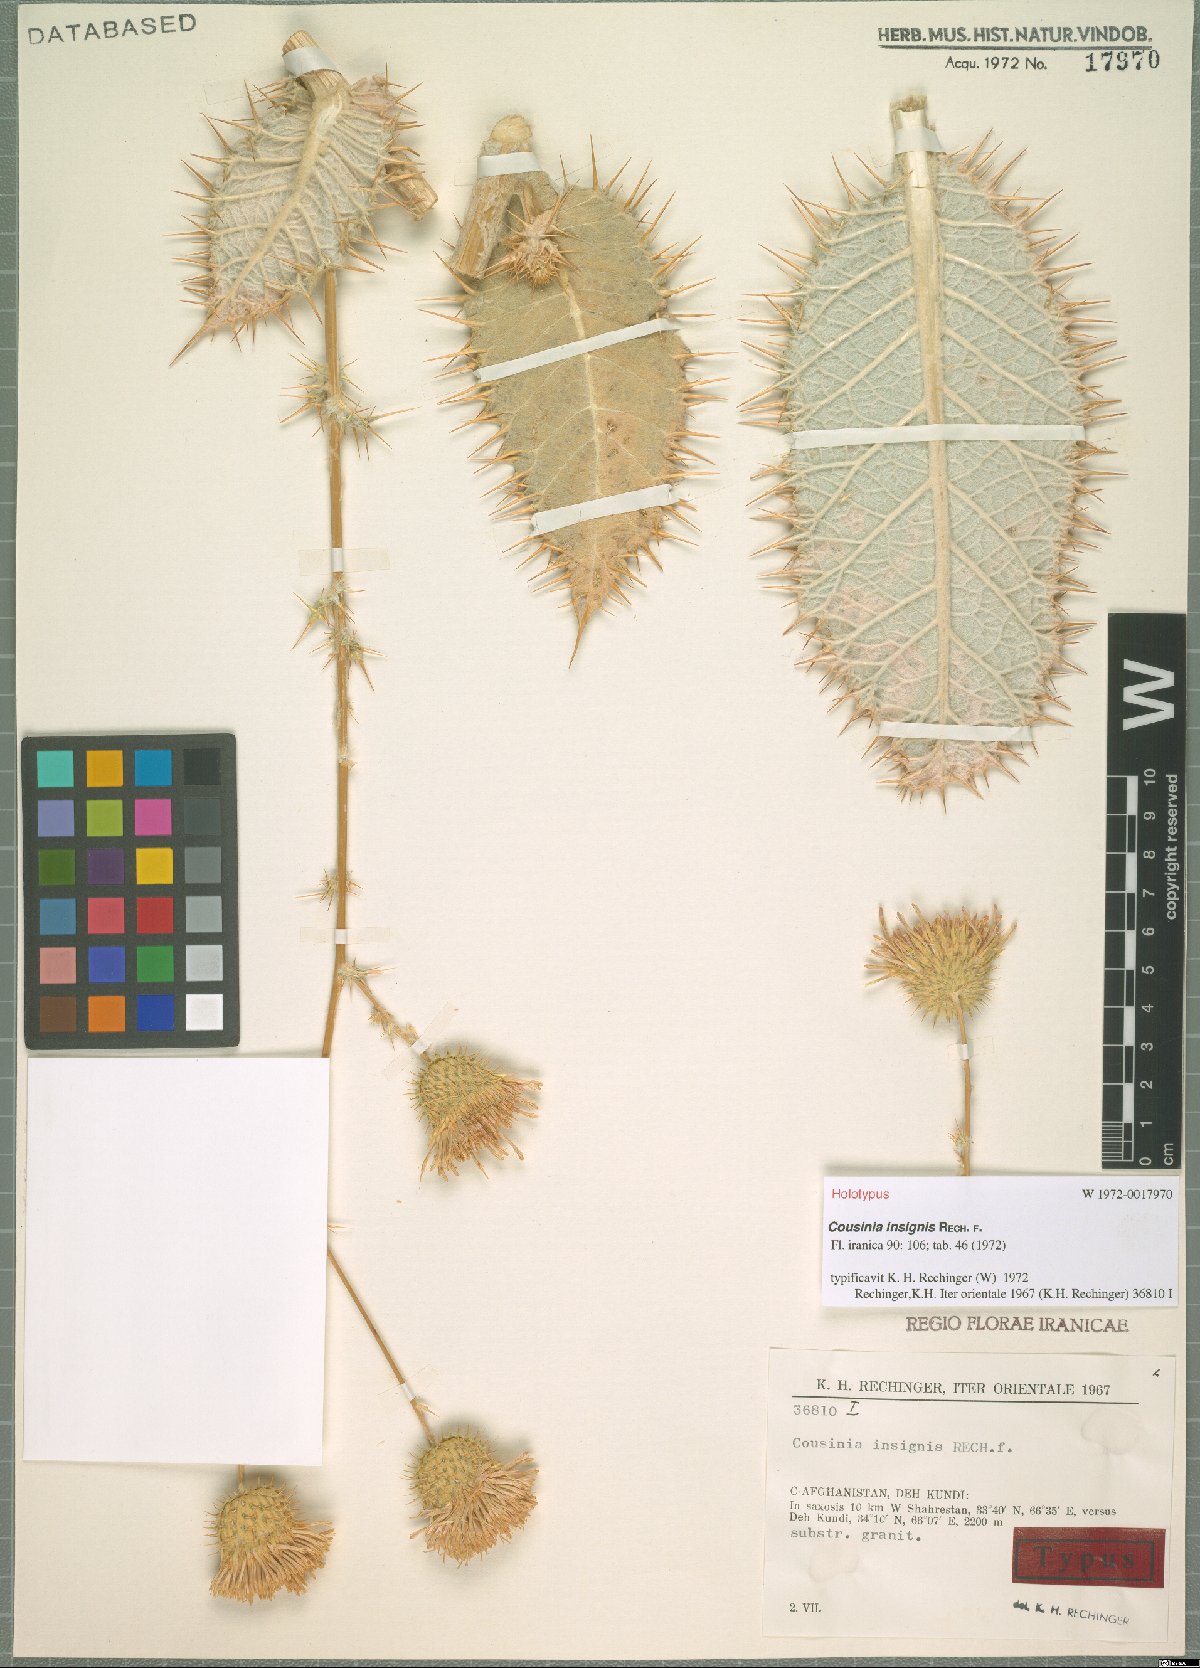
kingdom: Plantae
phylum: Tracheophyta
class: Magnoliopsida
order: Asterales
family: Asteraceae
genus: Cousinia
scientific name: Cousinia insignis
